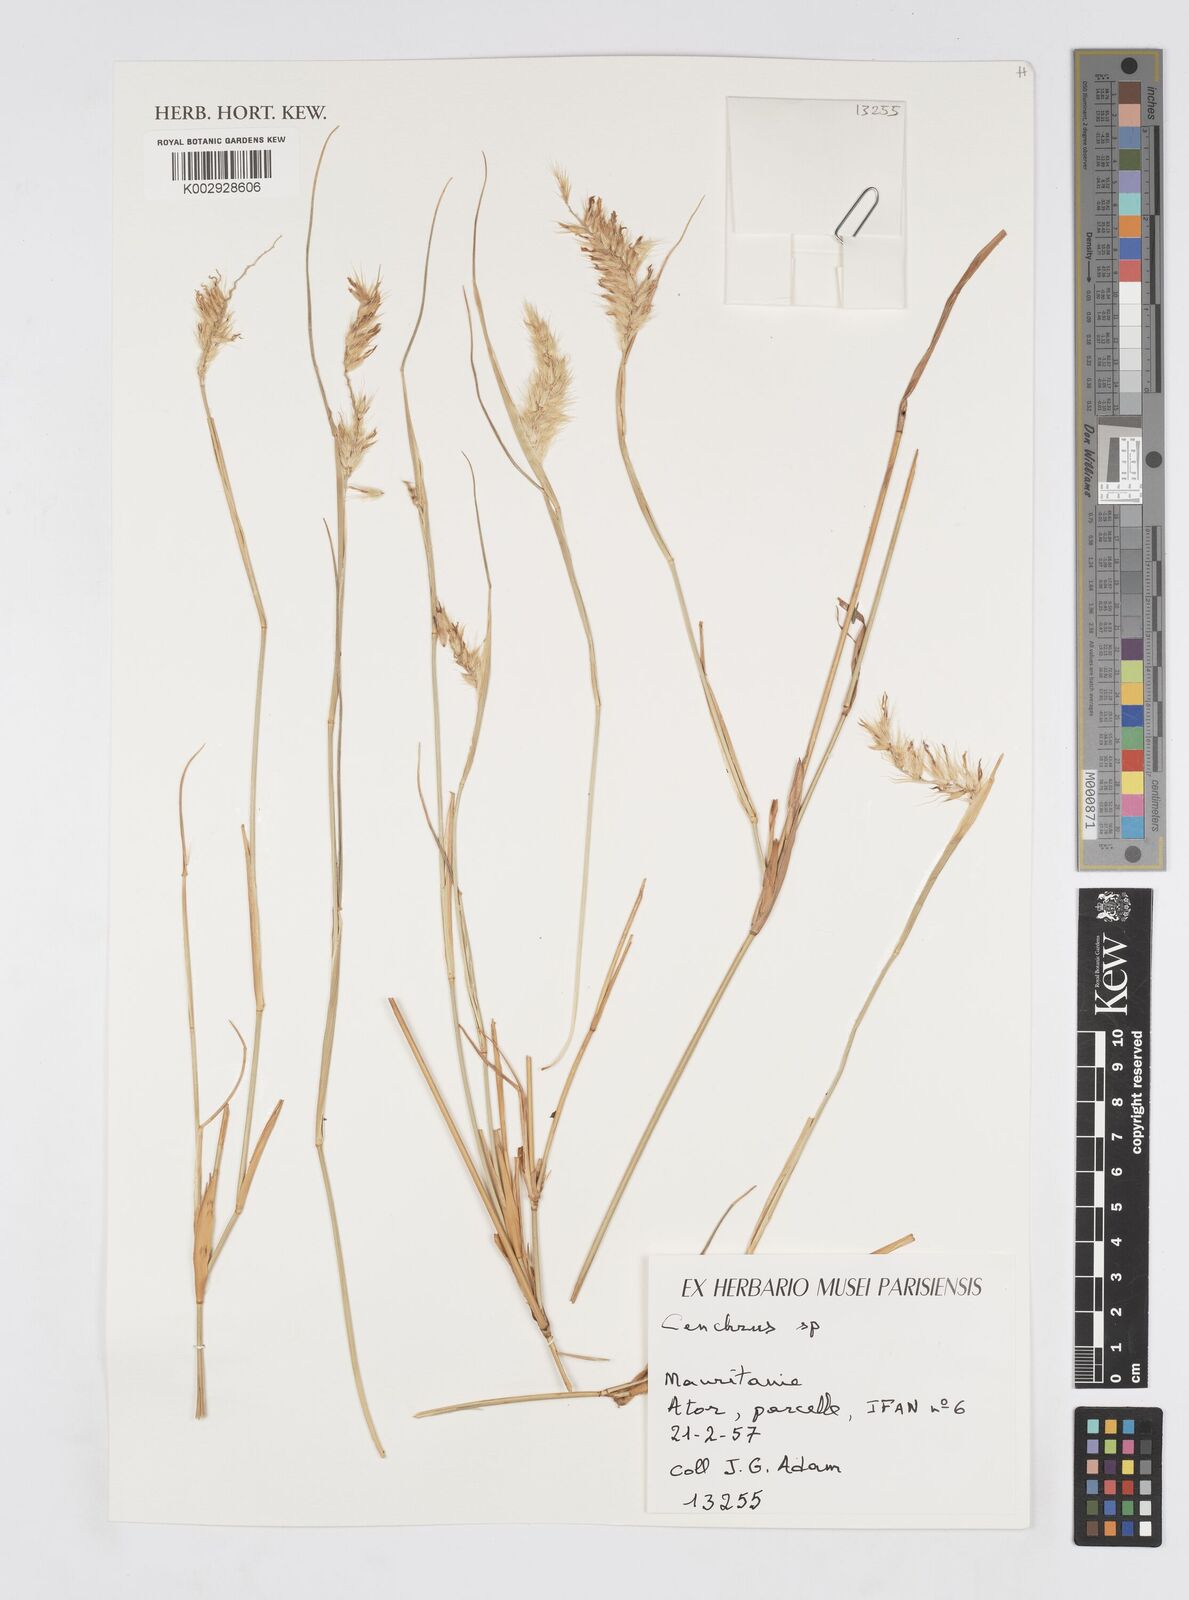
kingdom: Plantae
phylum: Tracheophyta
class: Liliopsida
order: Poales
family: Poaceae
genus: Cenchrus
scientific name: Cenchrus
